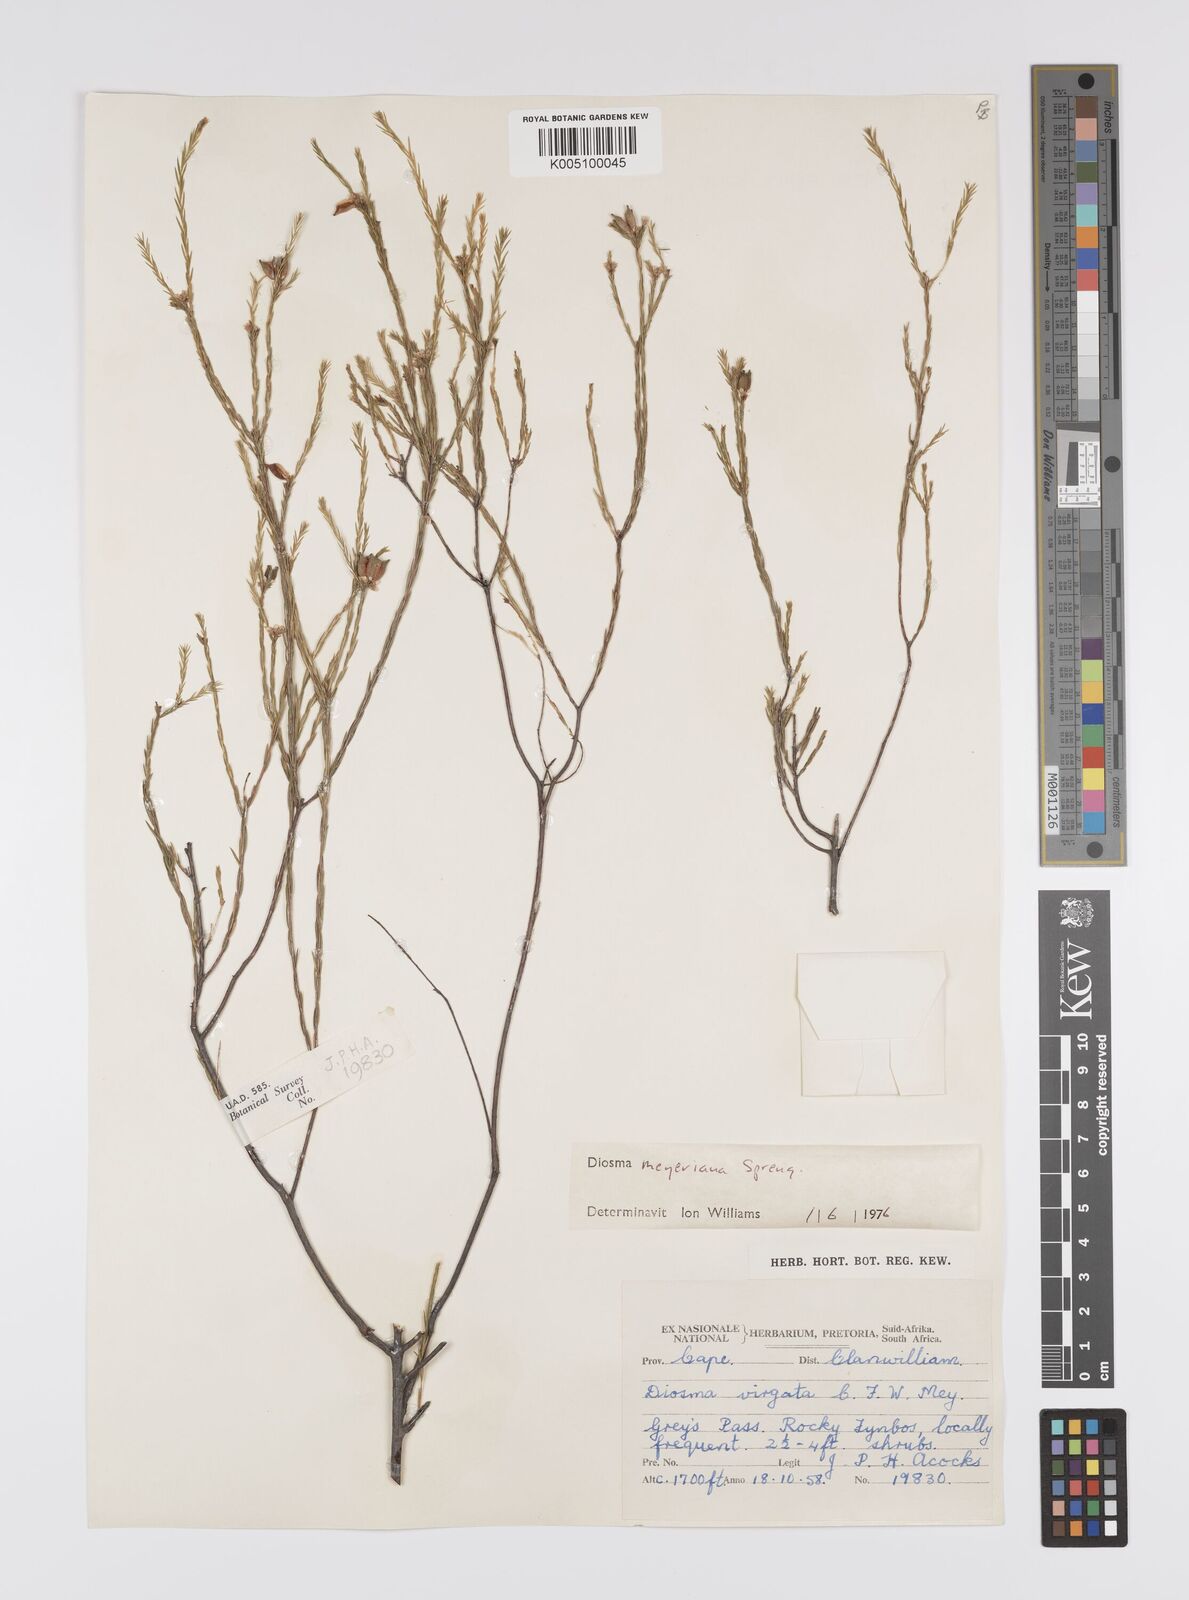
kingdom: Plantae
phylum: Tracheophyta
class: Magnoliopsida
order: Sapindales
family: Rutaceae
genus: Agathosma
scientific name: Agathosma virgata
